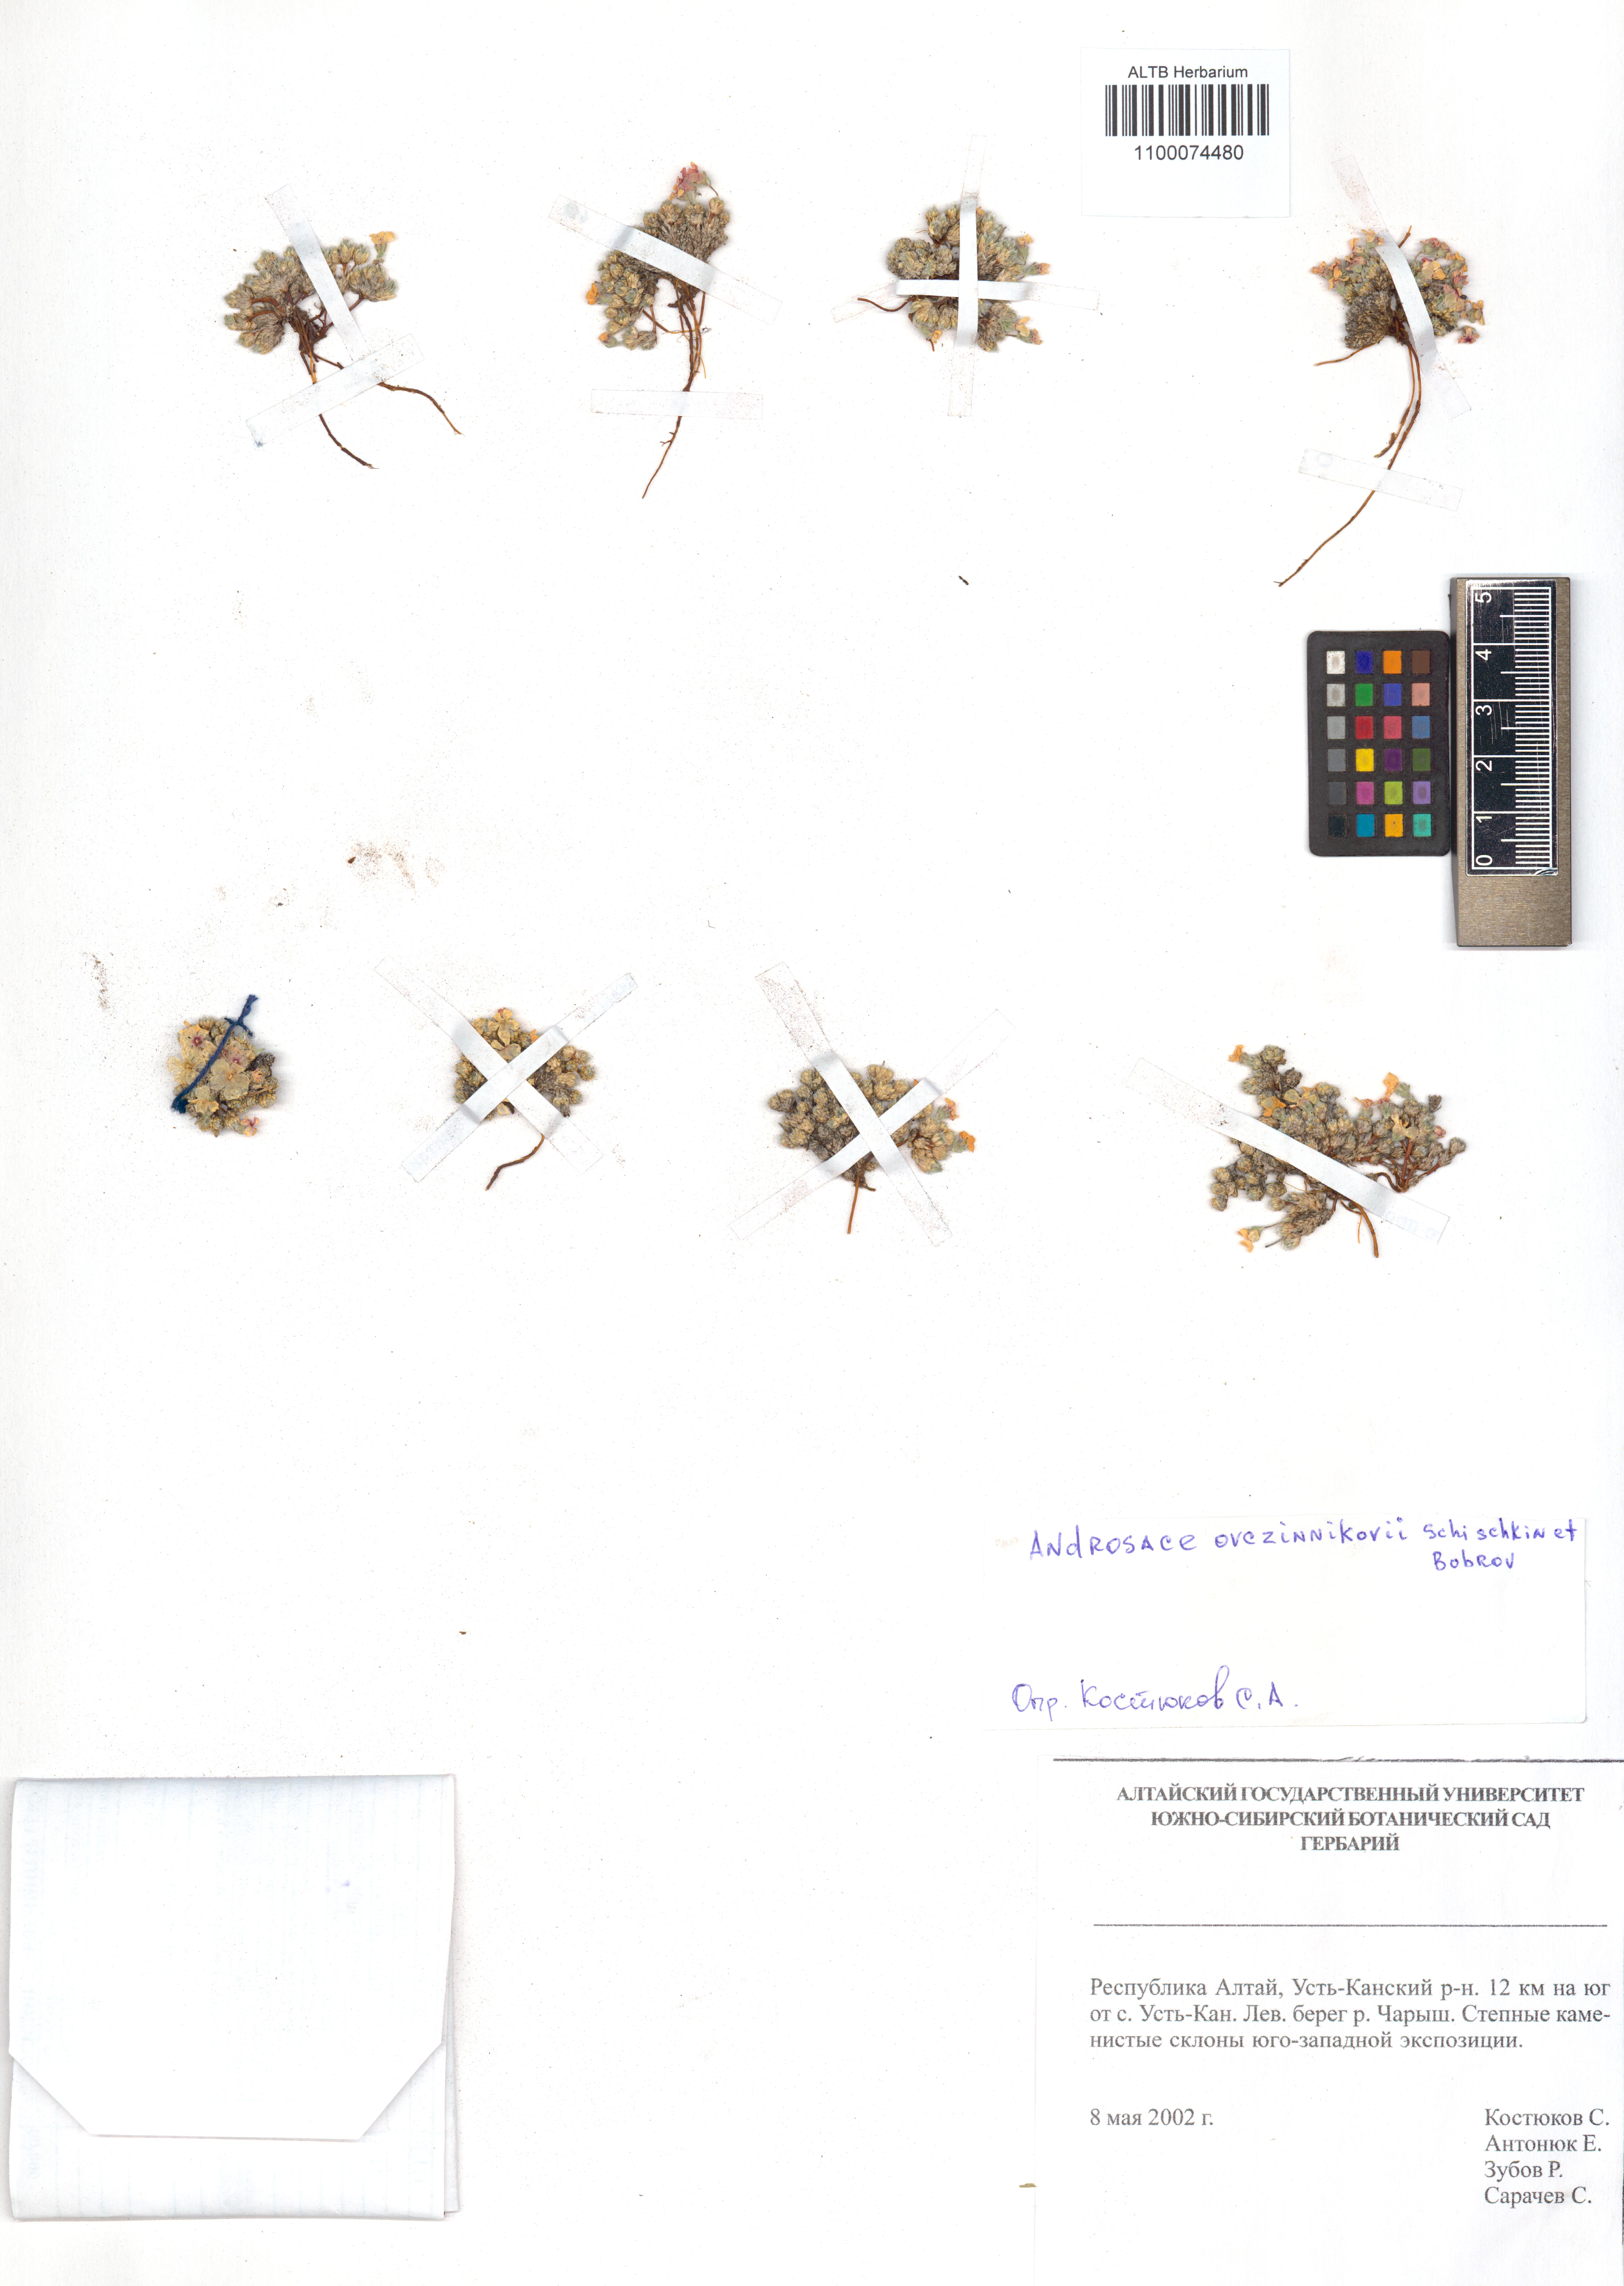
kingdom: Plantae
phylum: Tracheophyta
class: Magnoliopsida
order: Ericales
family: Primulaceae
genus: Androsace
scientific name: Androsace ovczinnikovii
